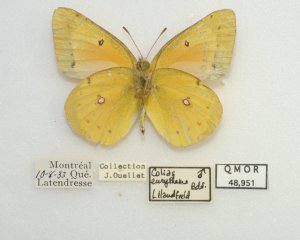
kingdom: Animalia
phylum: Arthropoda
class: Insecta
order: Lepidoptera
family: Pieridae
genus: Colias
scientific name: Colias eurytheme
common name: Orange Sulphur
